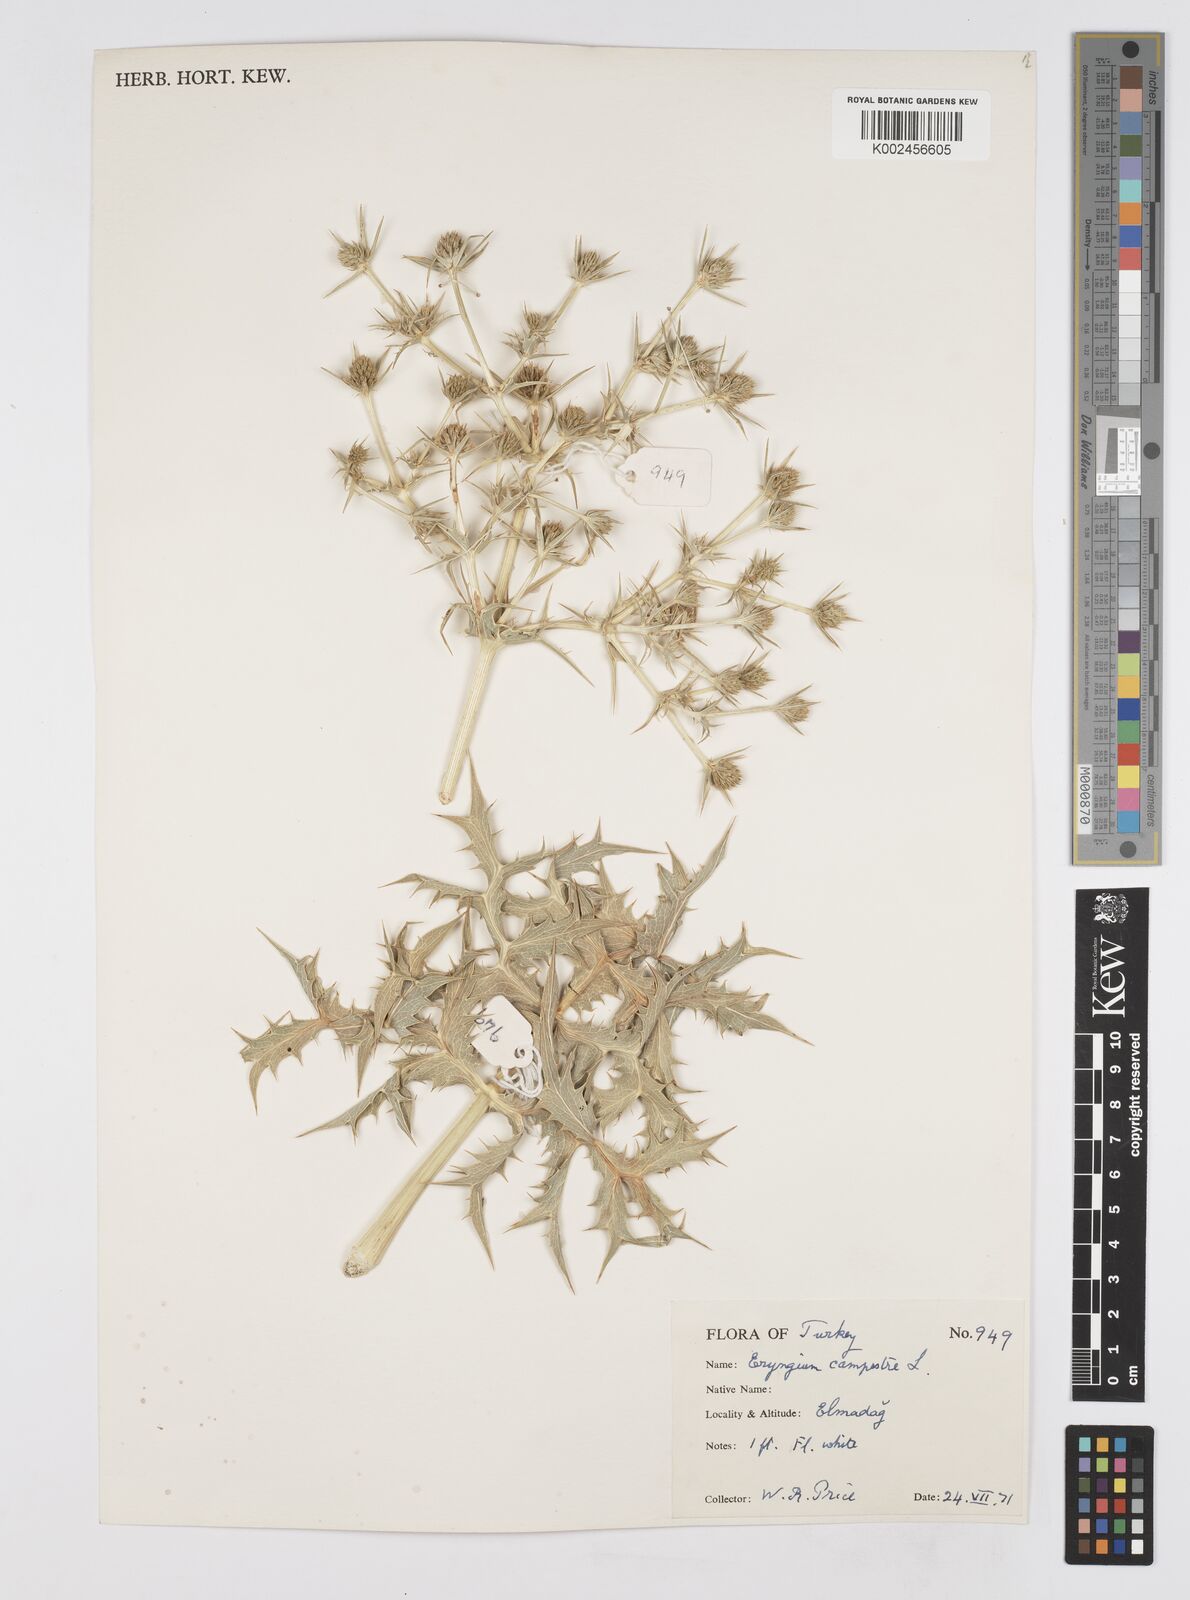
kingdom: Plantae
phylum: Tracheophyta
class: Magnoliopsida
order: Apiales
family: Apiaceae
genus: Eryngium
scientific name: Eryngium campestre
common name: Field eryngo
